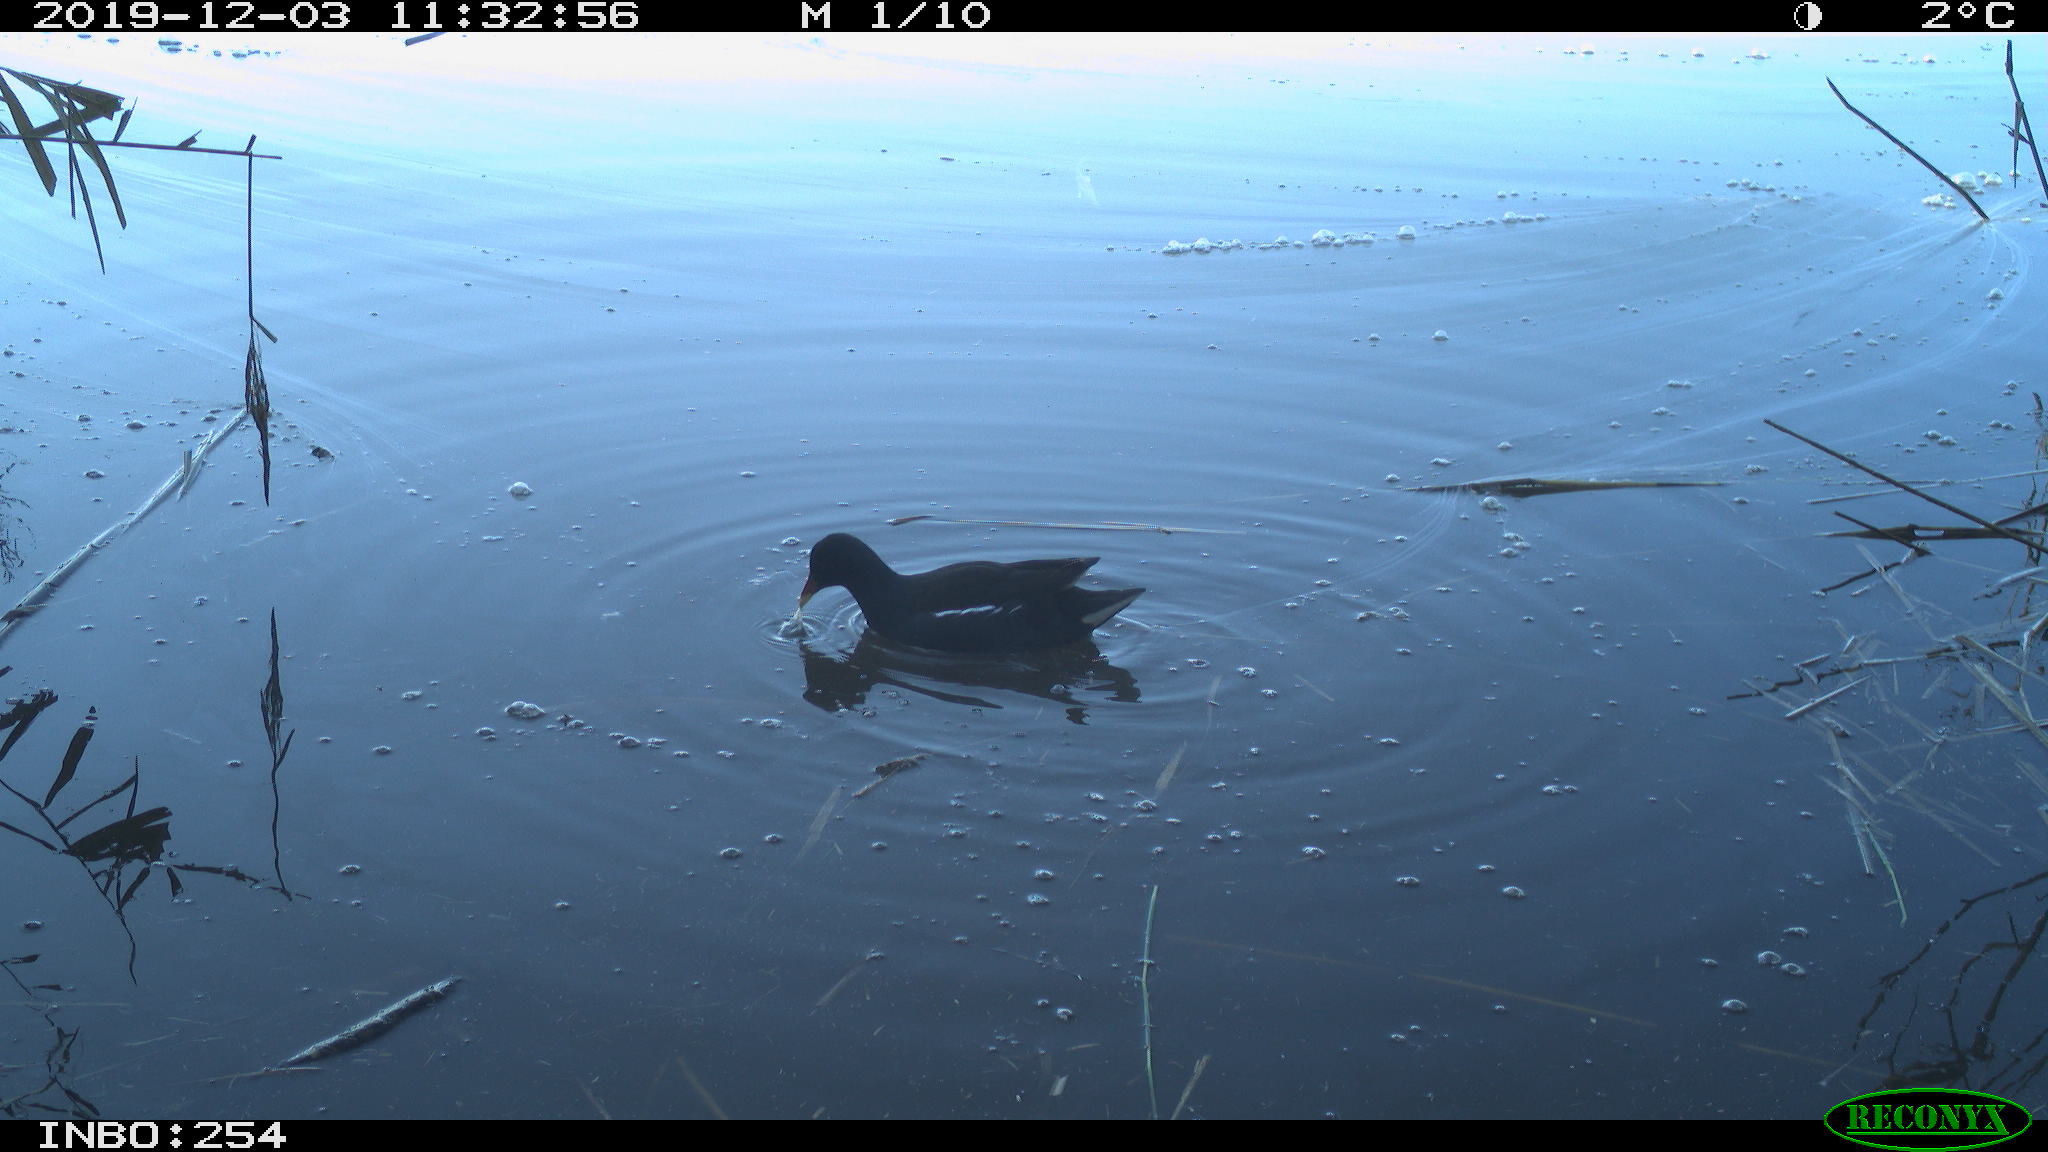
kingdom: Animalia
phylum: Chordata
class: Aves
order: Gruiformes
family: Rallidae
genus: Gallinula
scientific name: Gallinula chloropus
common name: Common moorhen
